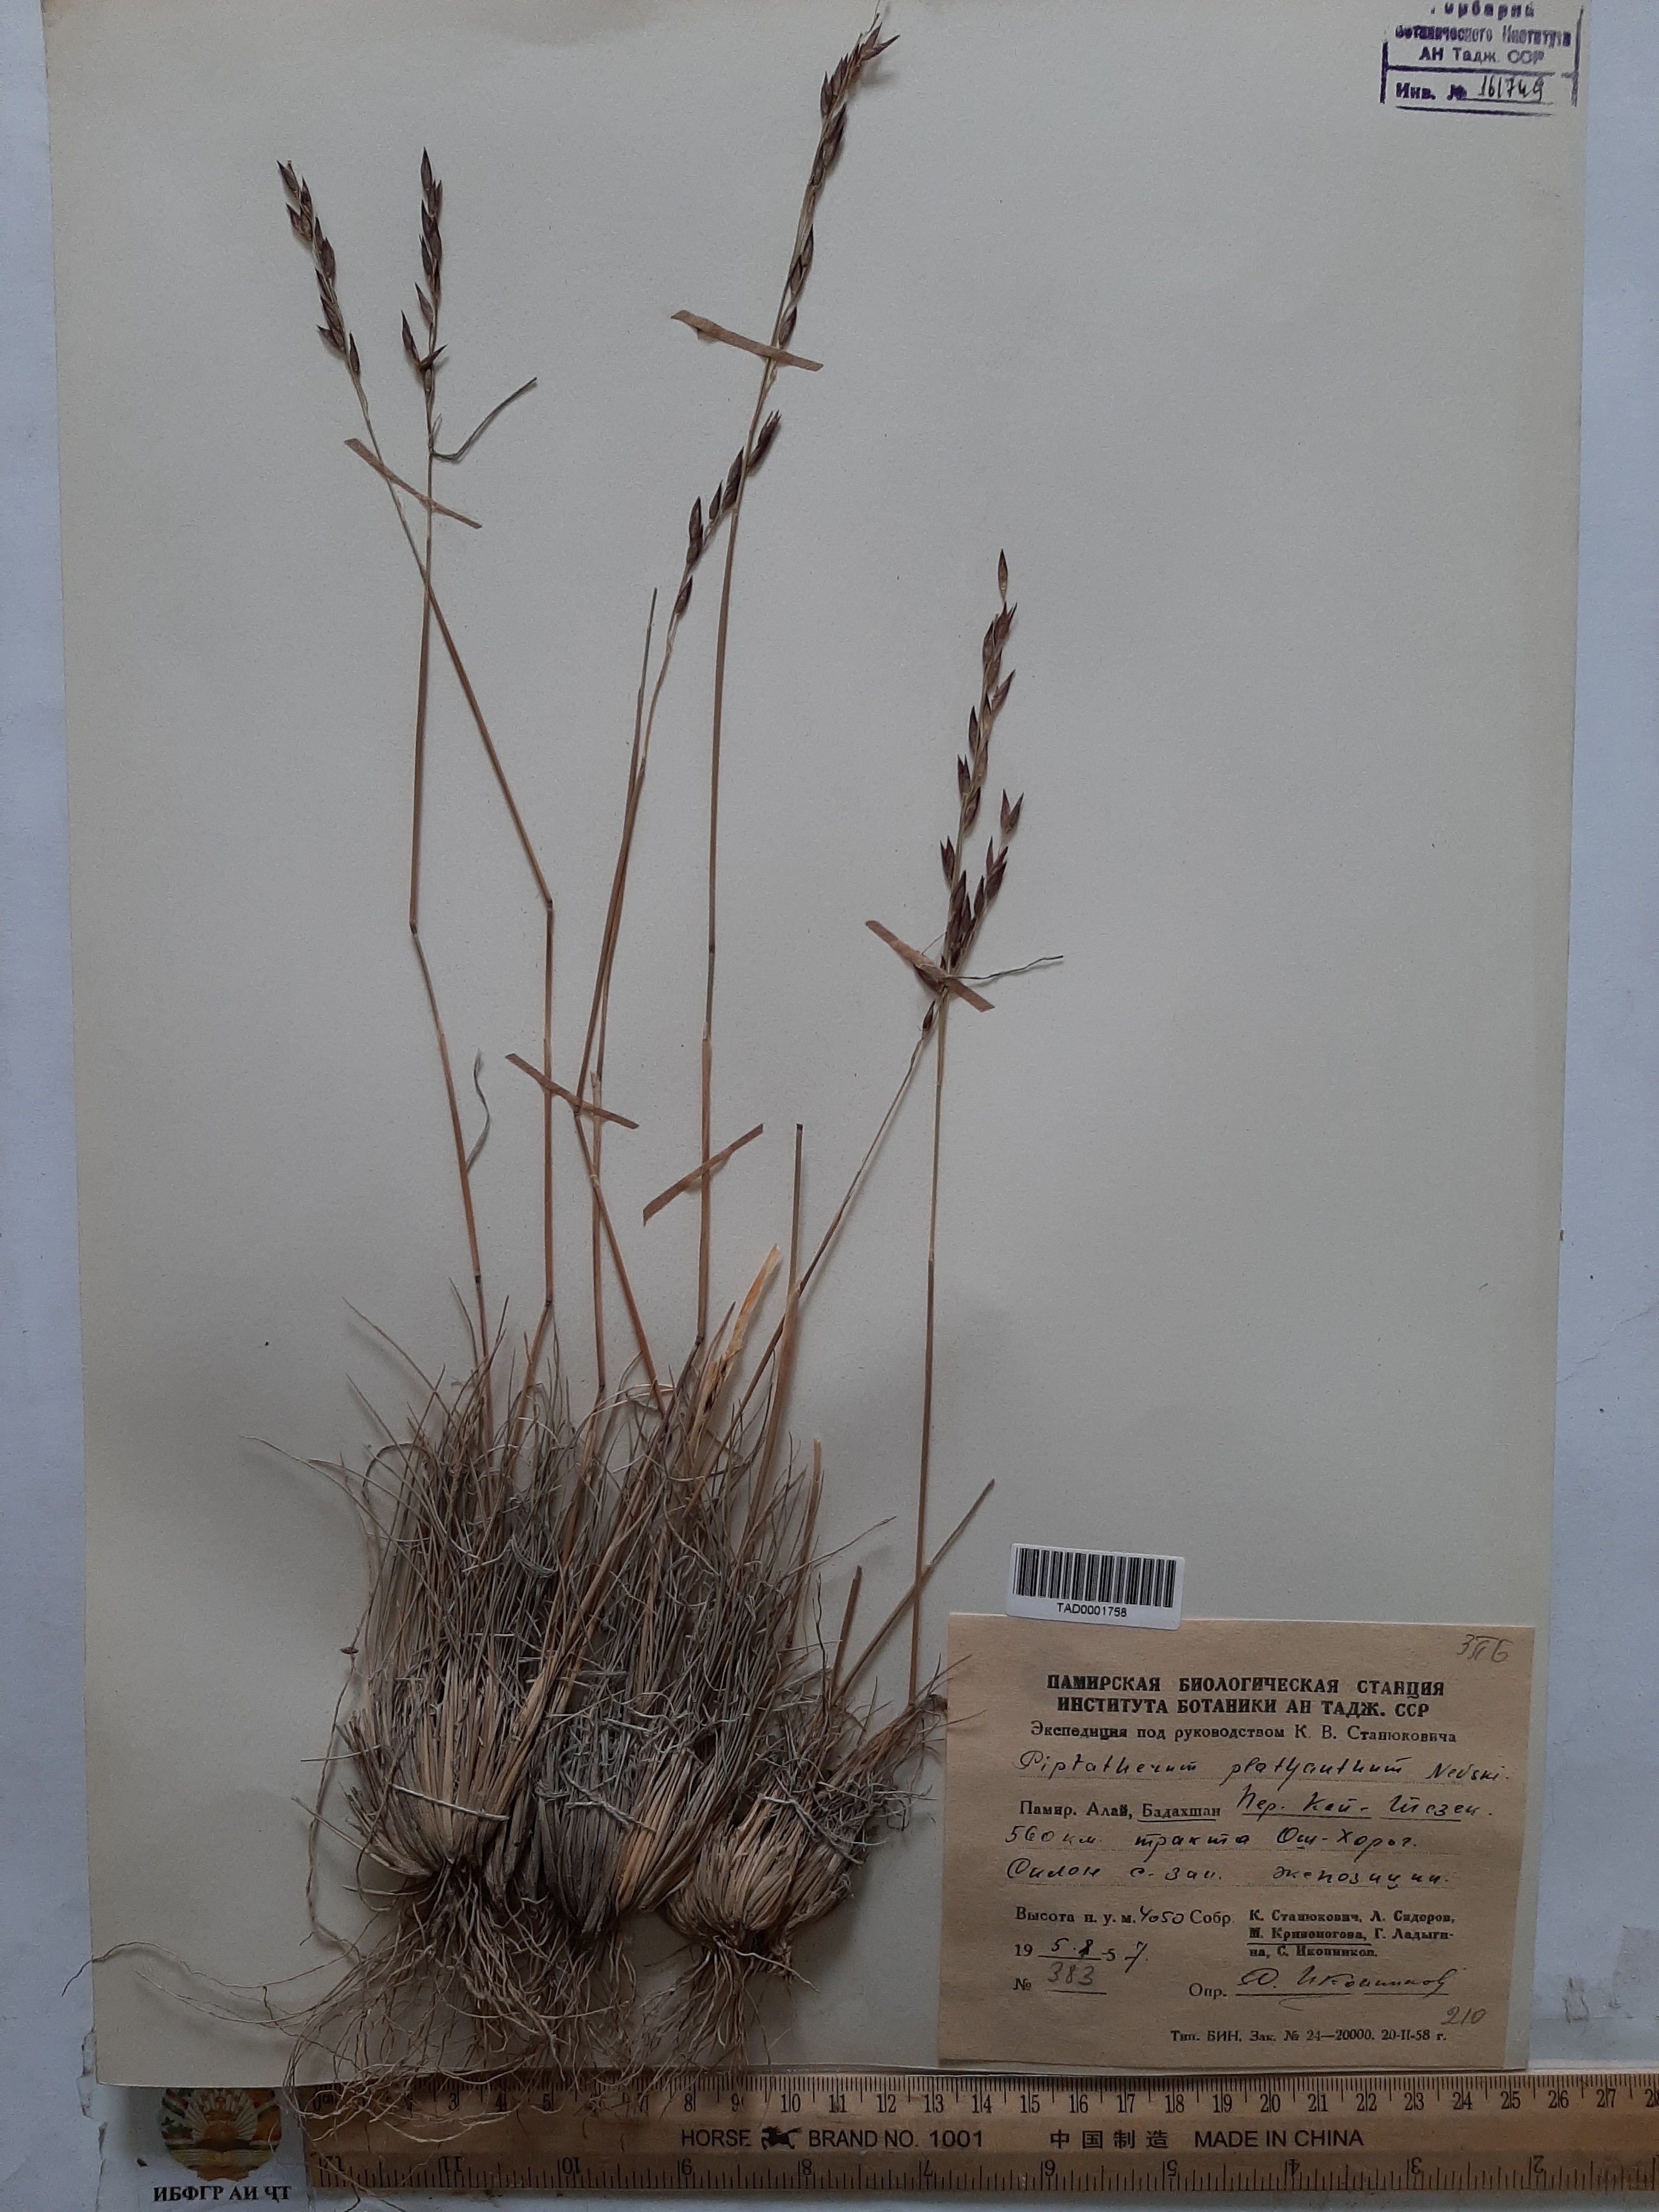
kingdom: Plantae
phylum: Tracheophyta
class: Liliopsida
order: Poales
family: Poaceae
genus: Piptatherum
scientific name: Piptatherum platyanthum
